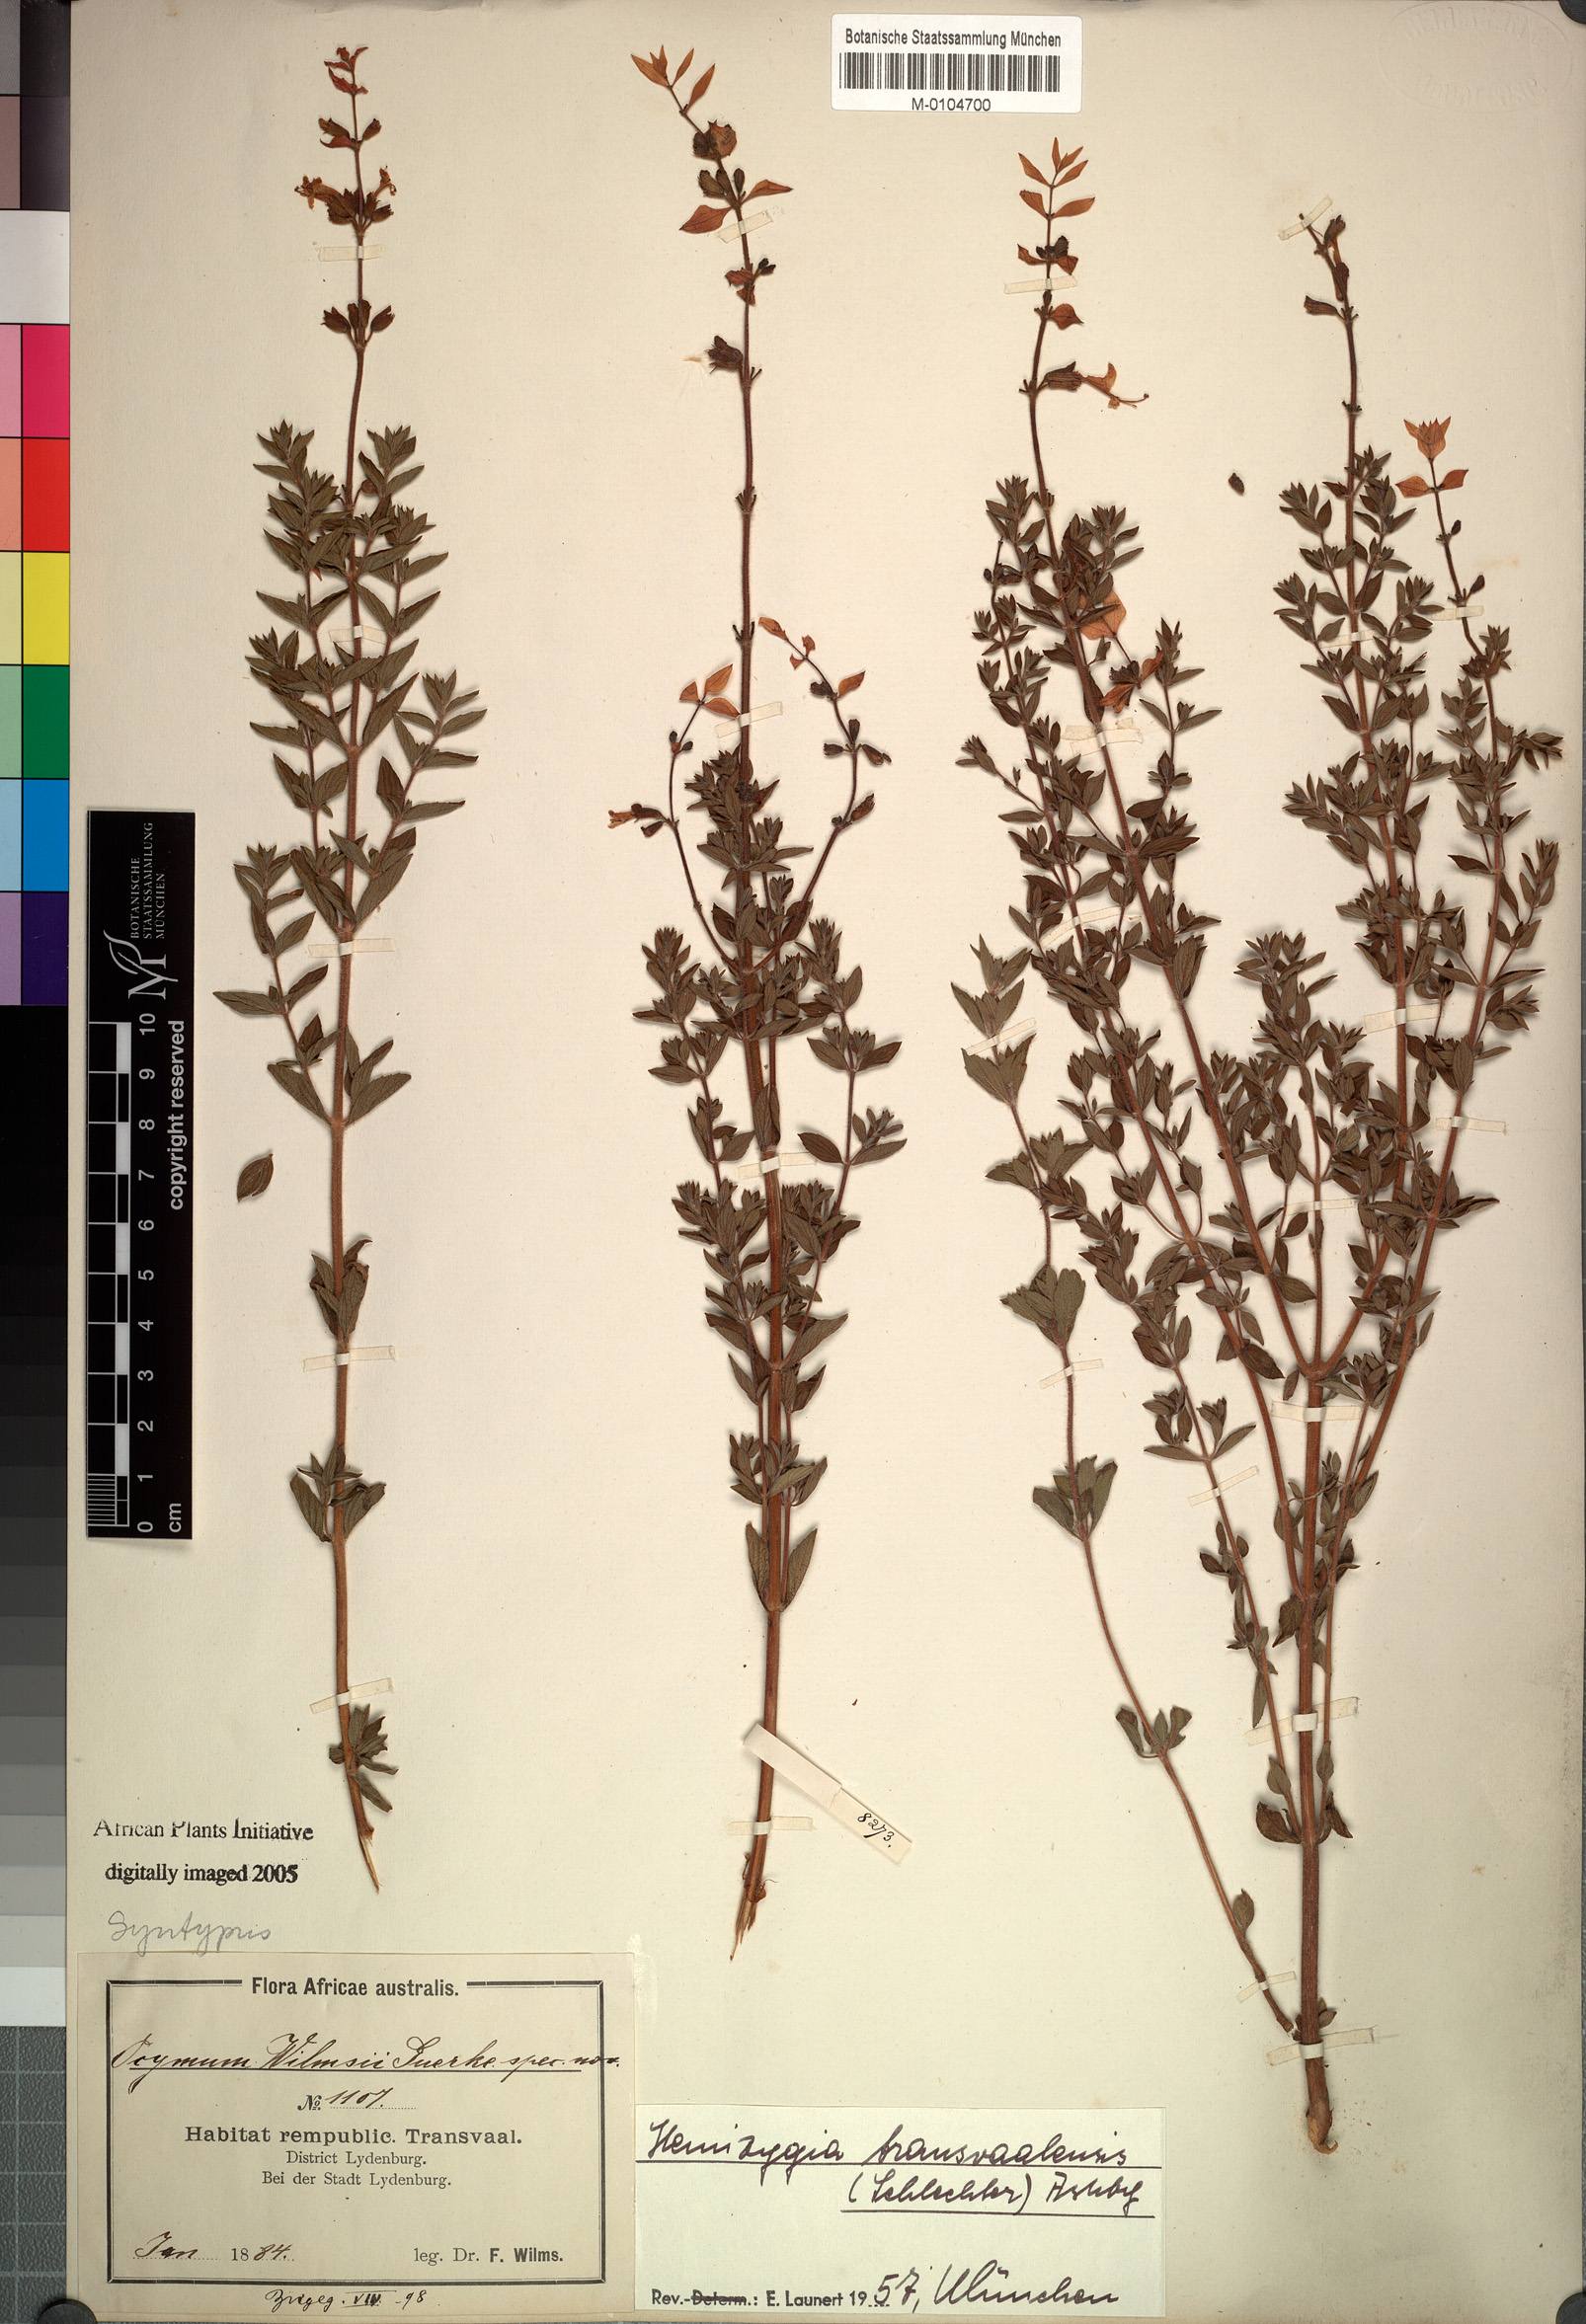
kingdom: Plantae
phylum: Tracheophyta
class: Magnoliopsida
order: Lamiales
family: Lamiaceae
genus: Syncolostemon
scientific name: Syncolostemon transvaalensis
